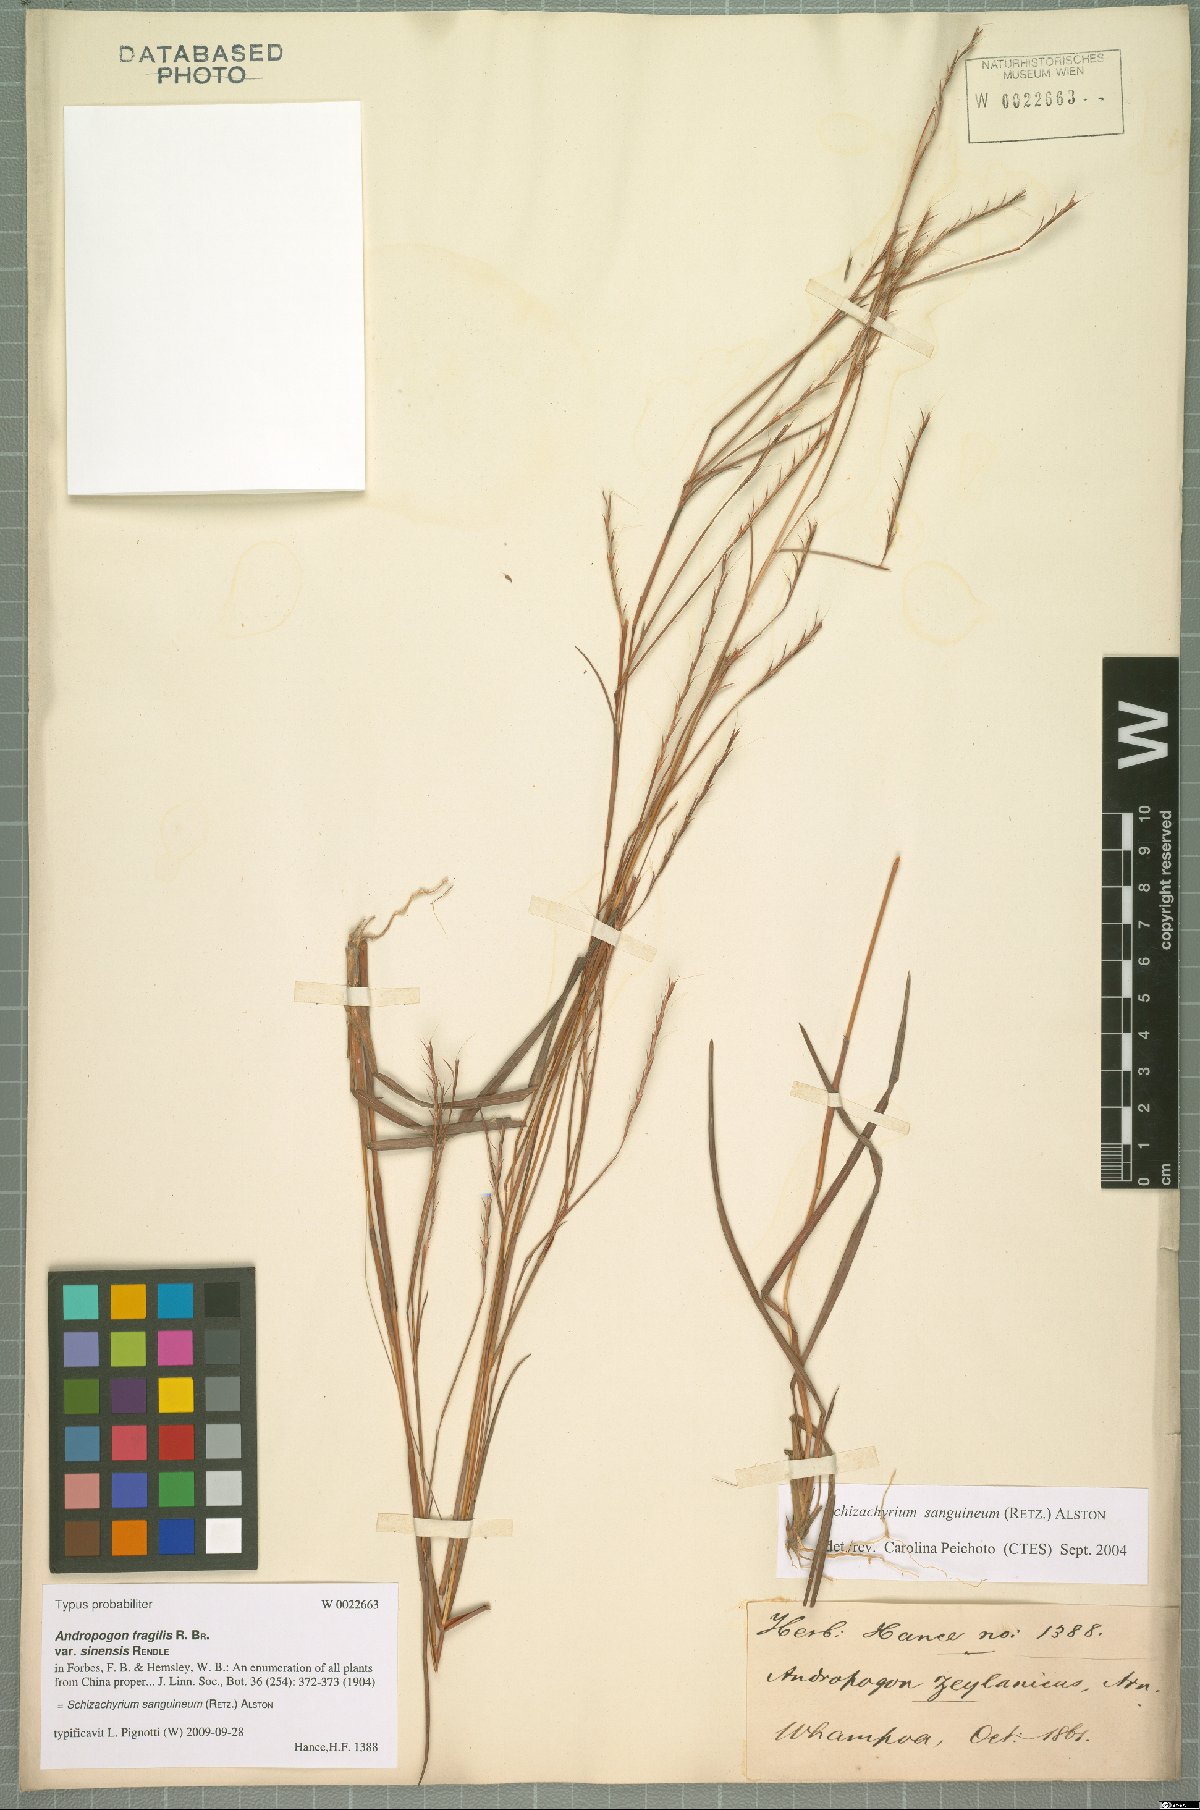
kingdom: Plantae
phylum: Tracheophyta
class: Liliopsida
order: Poales
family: Poaceae
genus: Schizachyrium
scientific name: Schizachyrium sanguineum
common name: Crimson bluestem
